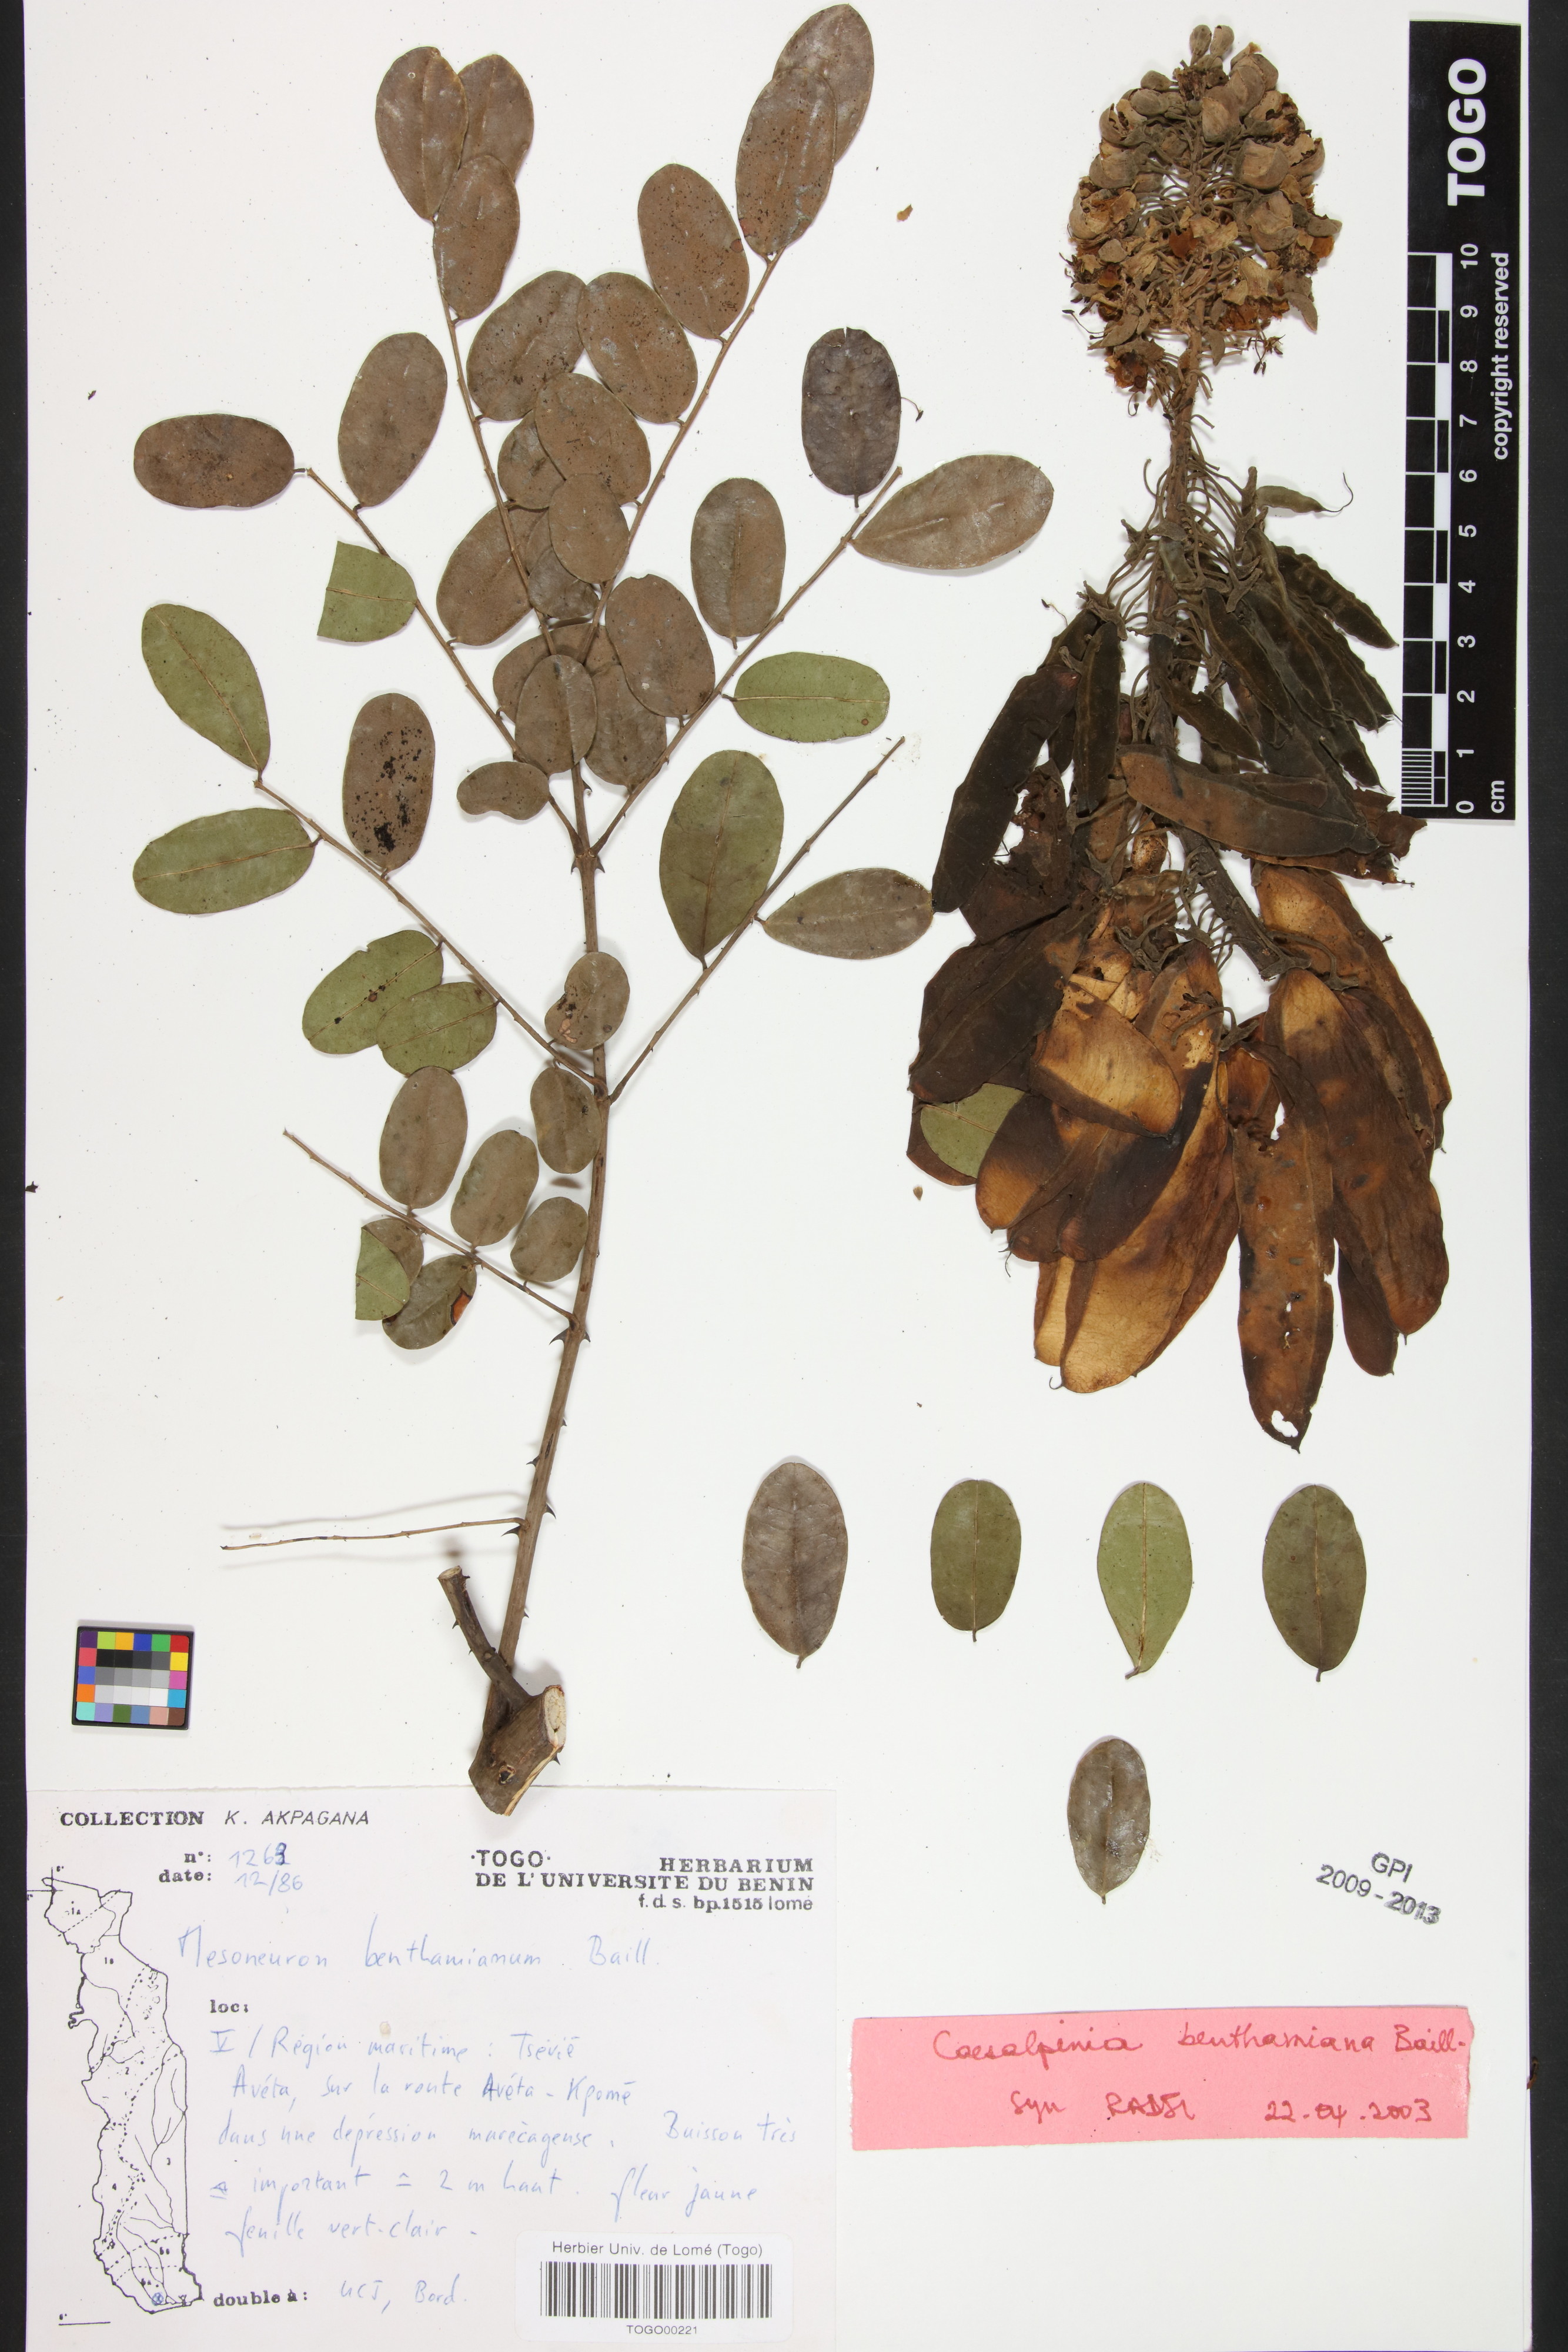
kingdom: Plantae
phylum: Tracheophyta
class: Magnoliopsida
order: Fabales
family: Fabaceae
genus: Mezoneuron
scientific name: Mezoneuron benthamianum
